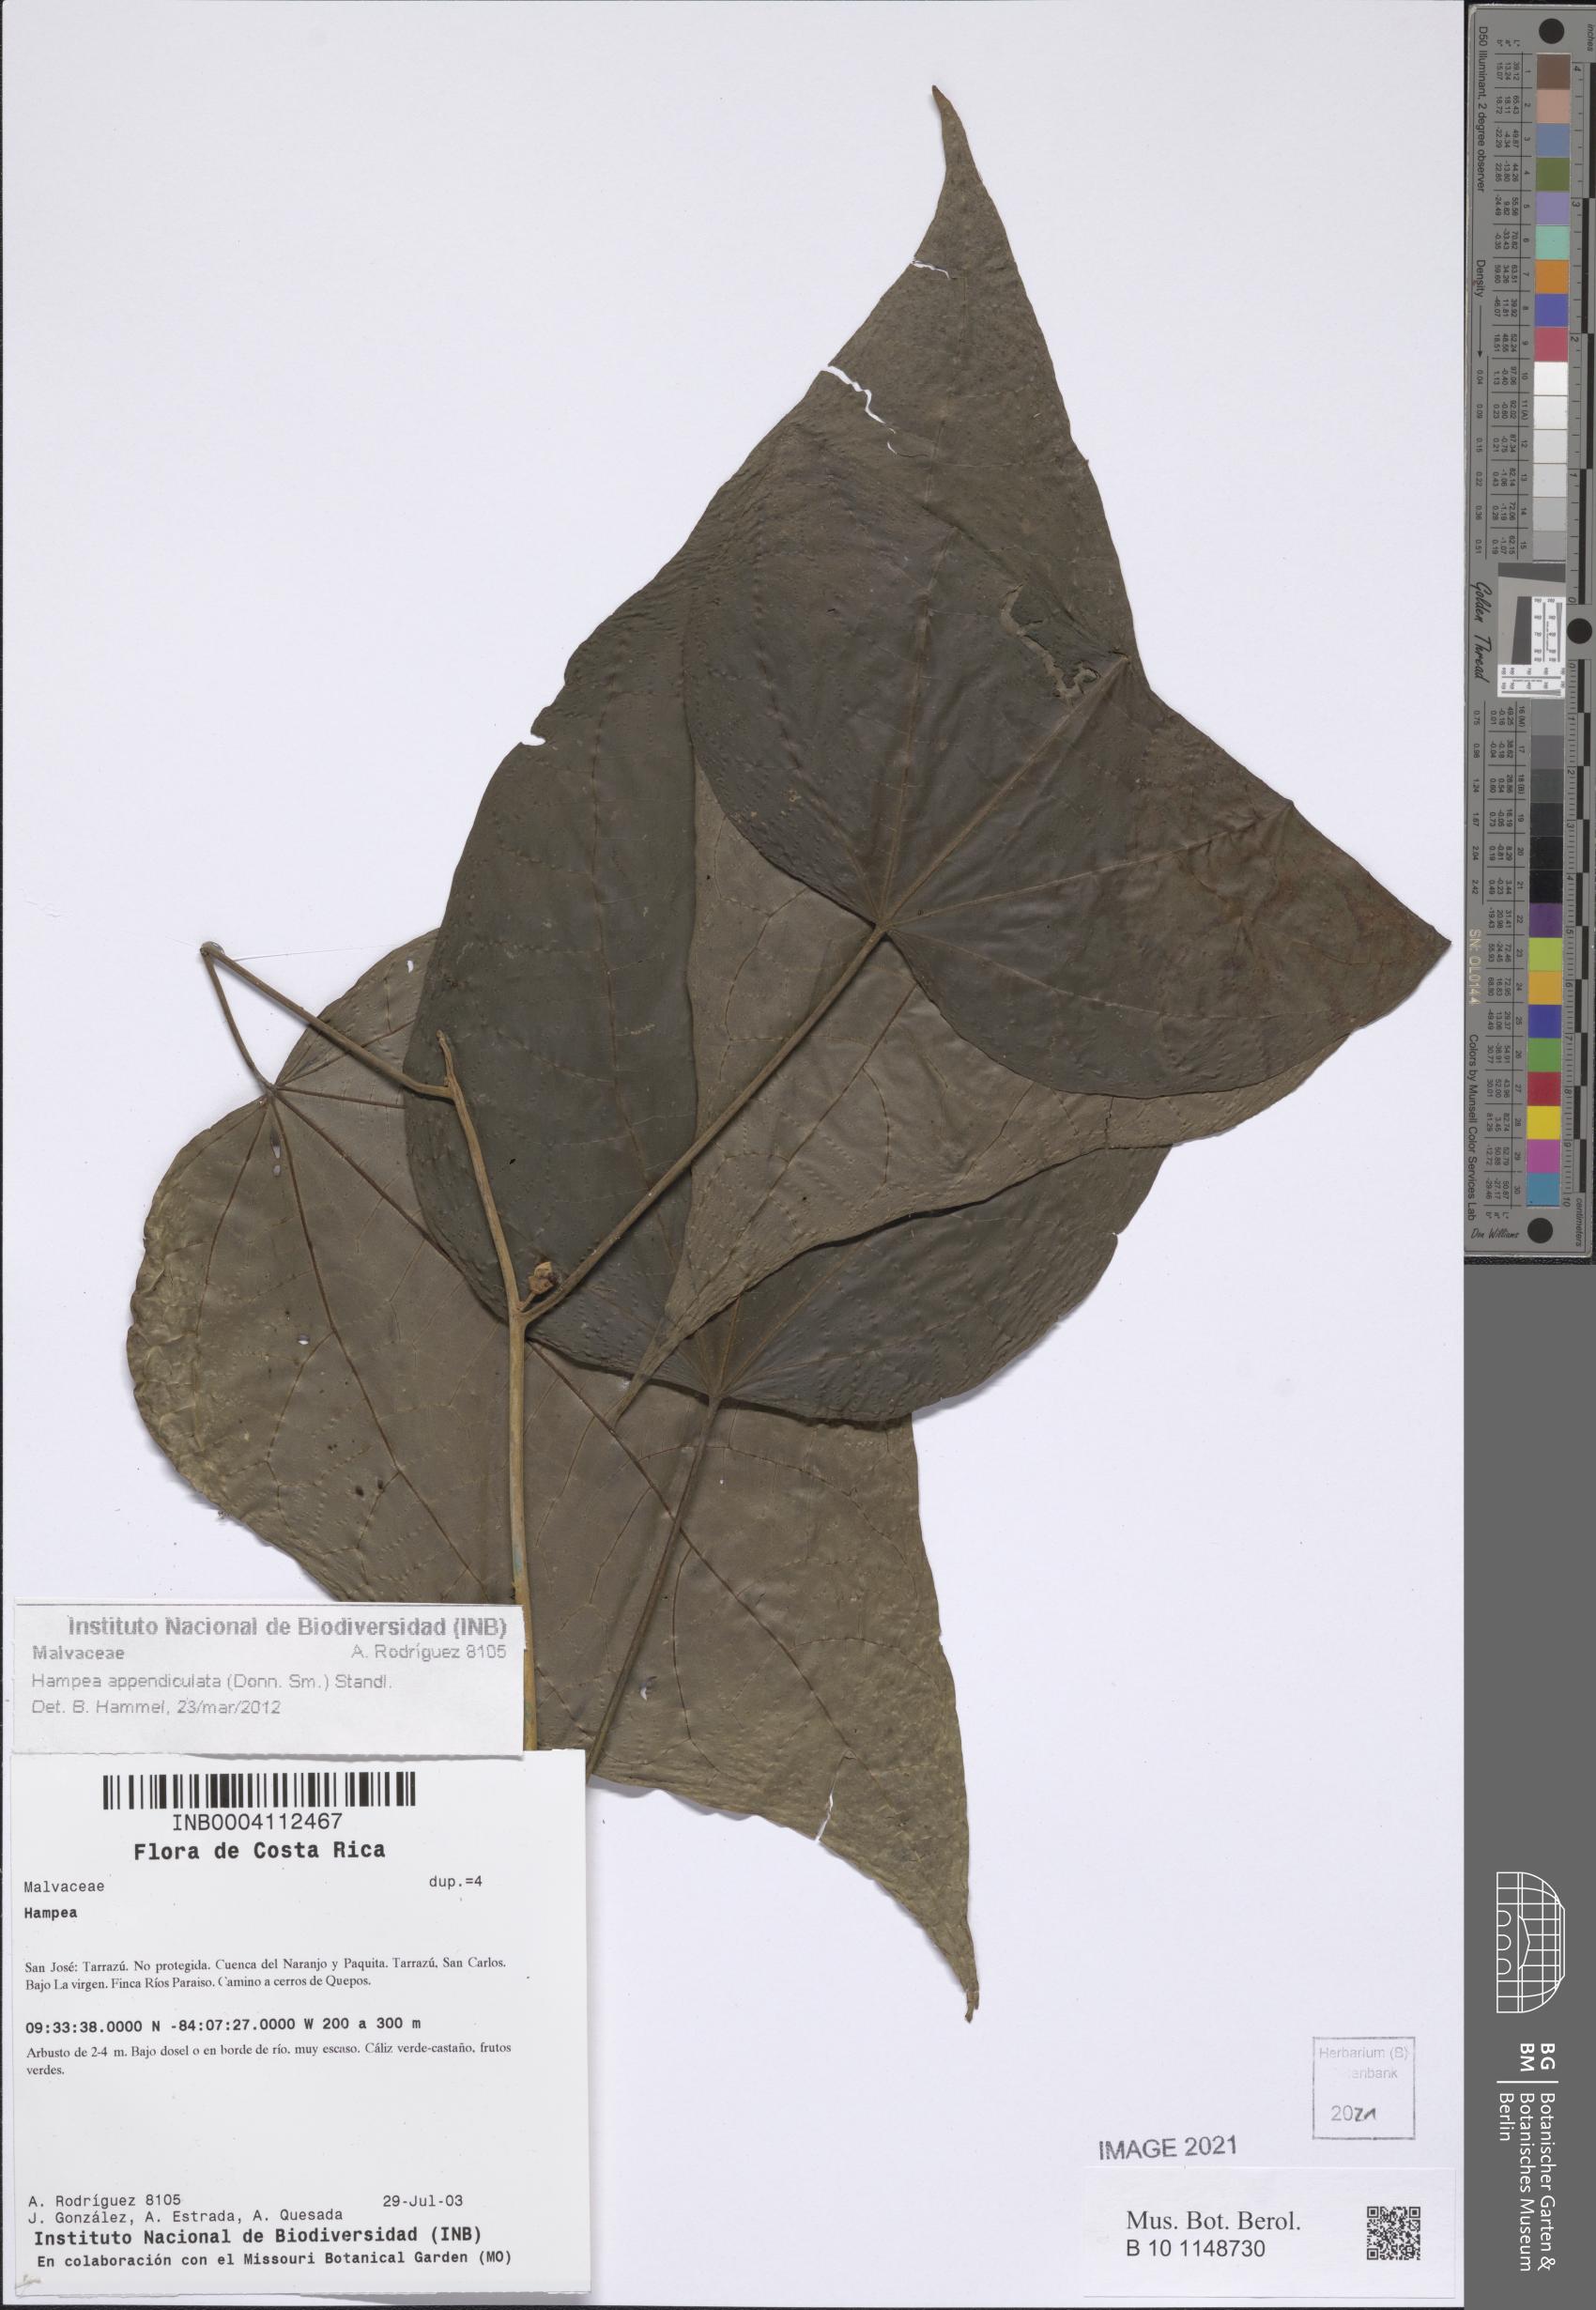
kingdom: Plantae
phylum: Tracheophyta
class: Magnoliopsida
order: Malvales
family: Malvaceae
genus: Hampea
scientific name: Hampea appendiculata
